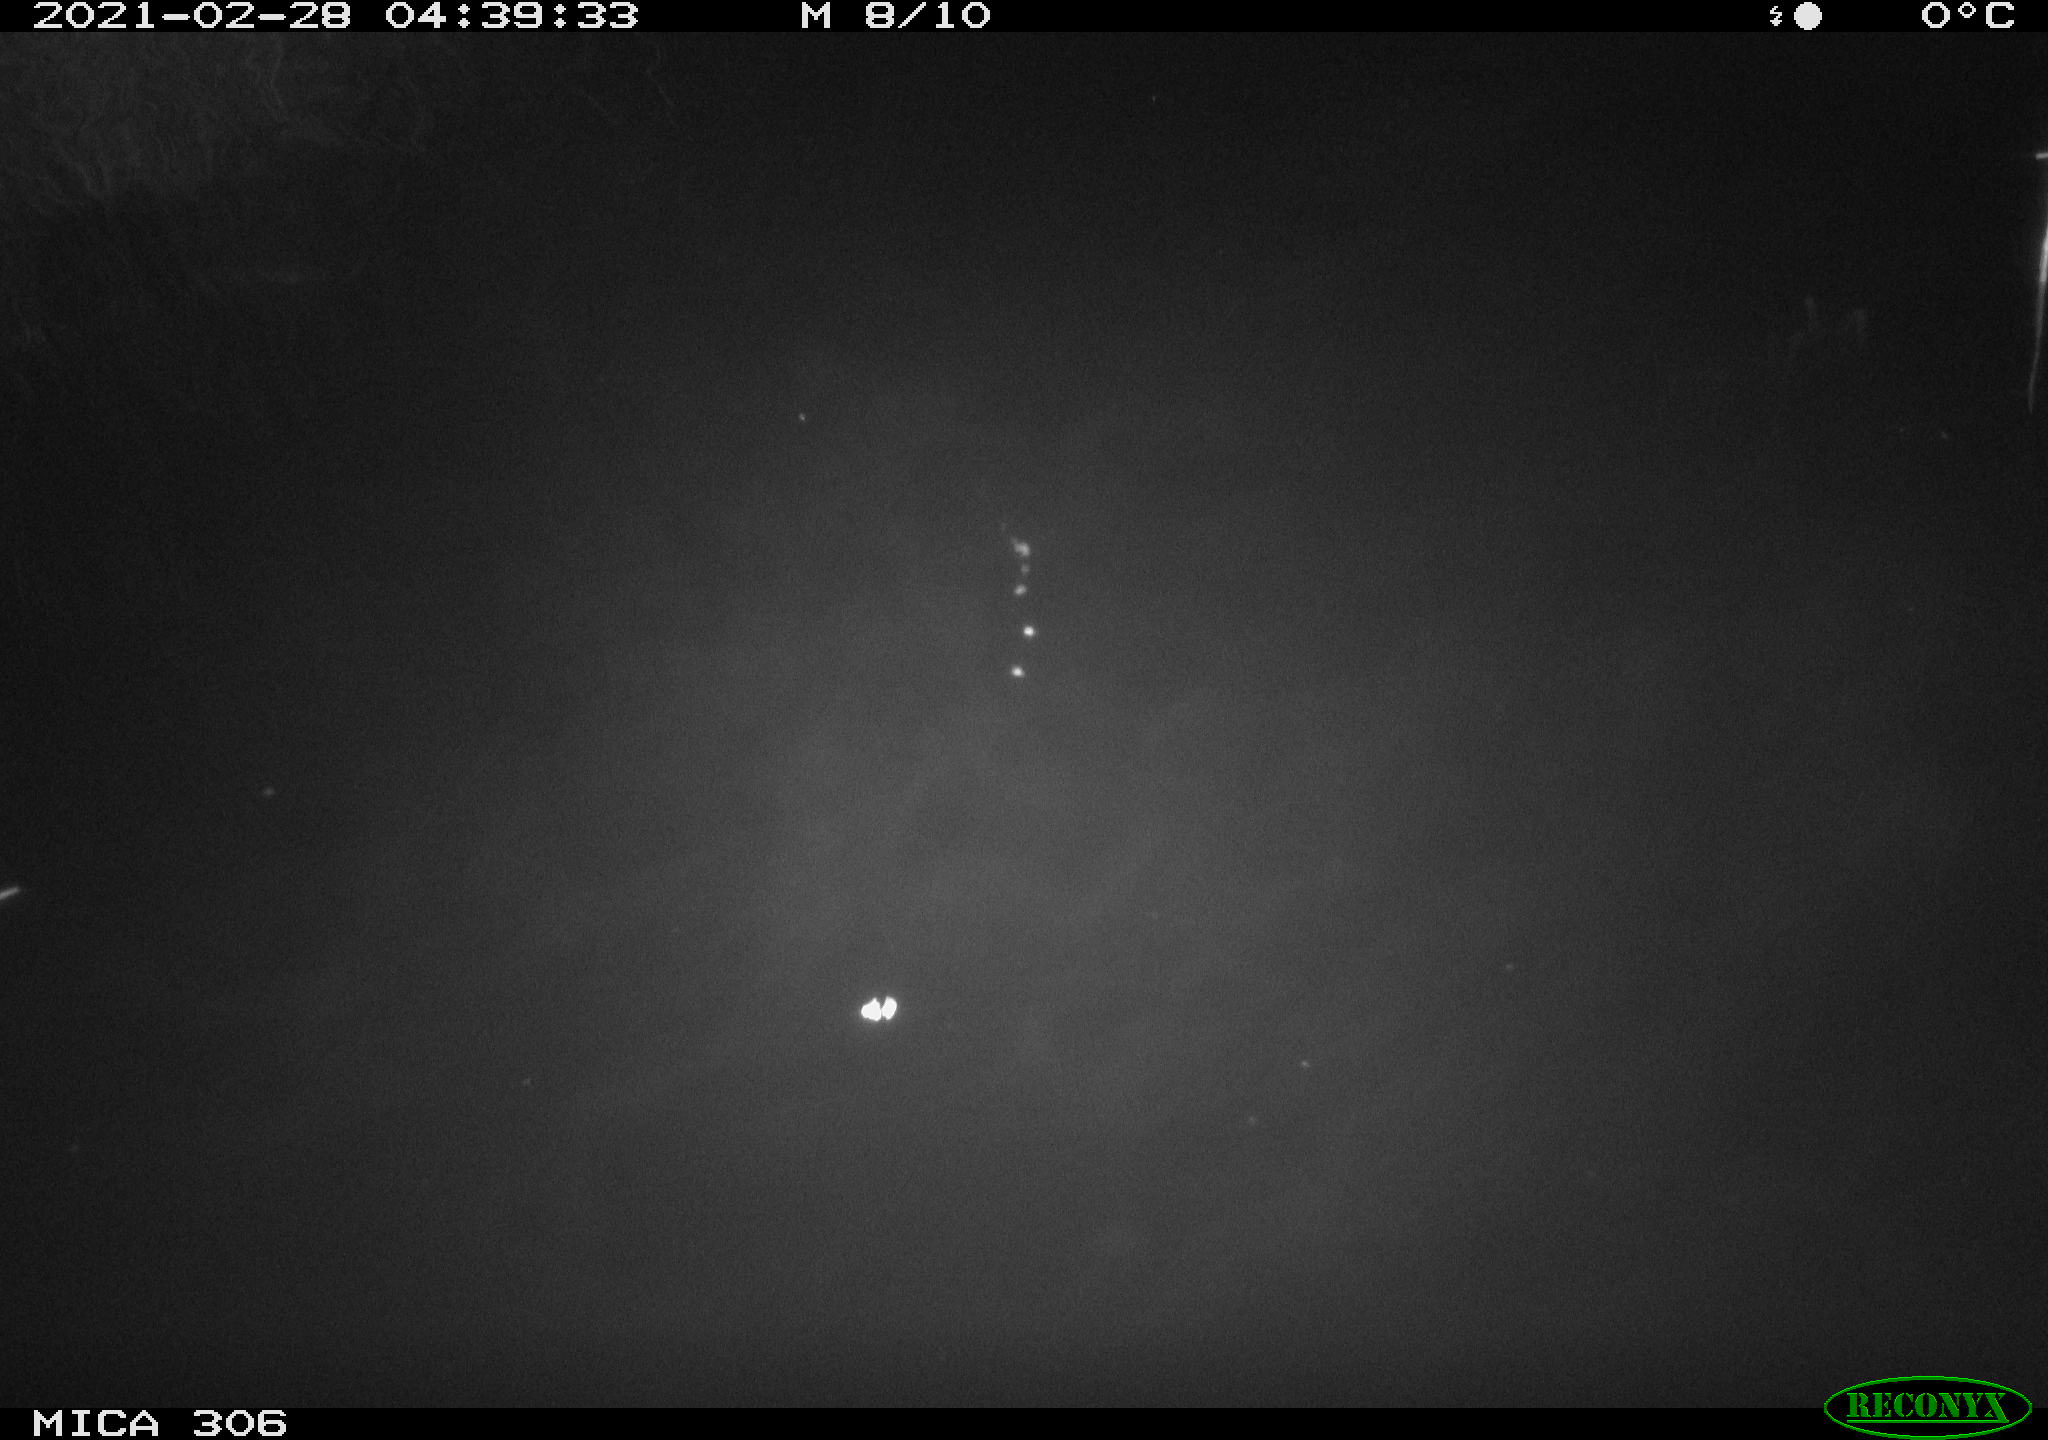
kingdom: Animalia
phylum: Chordata
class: Mammalia
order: Rodentia
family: Cricetidae
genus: Ondatra
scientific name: Ondatra zibethicus
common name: Muskrat
